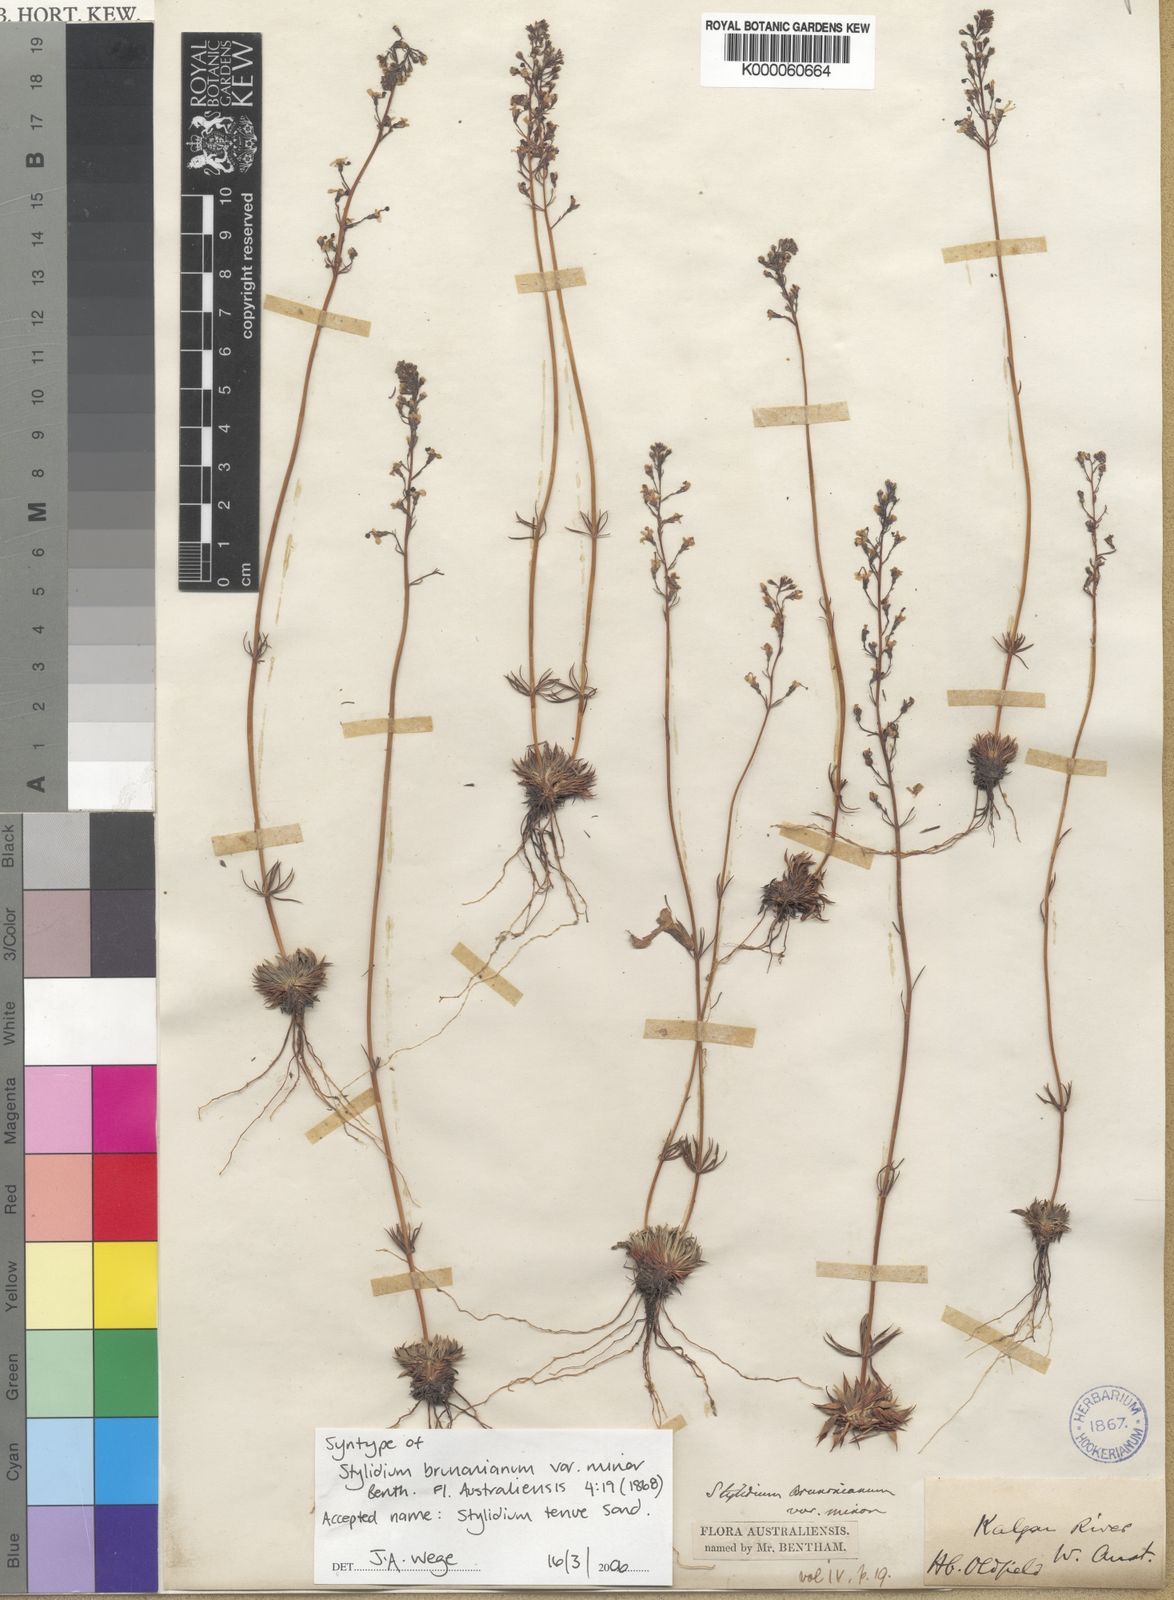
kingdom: Plantae
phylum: Tracheophyta
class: Magnoliopsida
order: Asterales
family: Stylidiaceae
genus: Stylidium
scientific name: Stylidium
